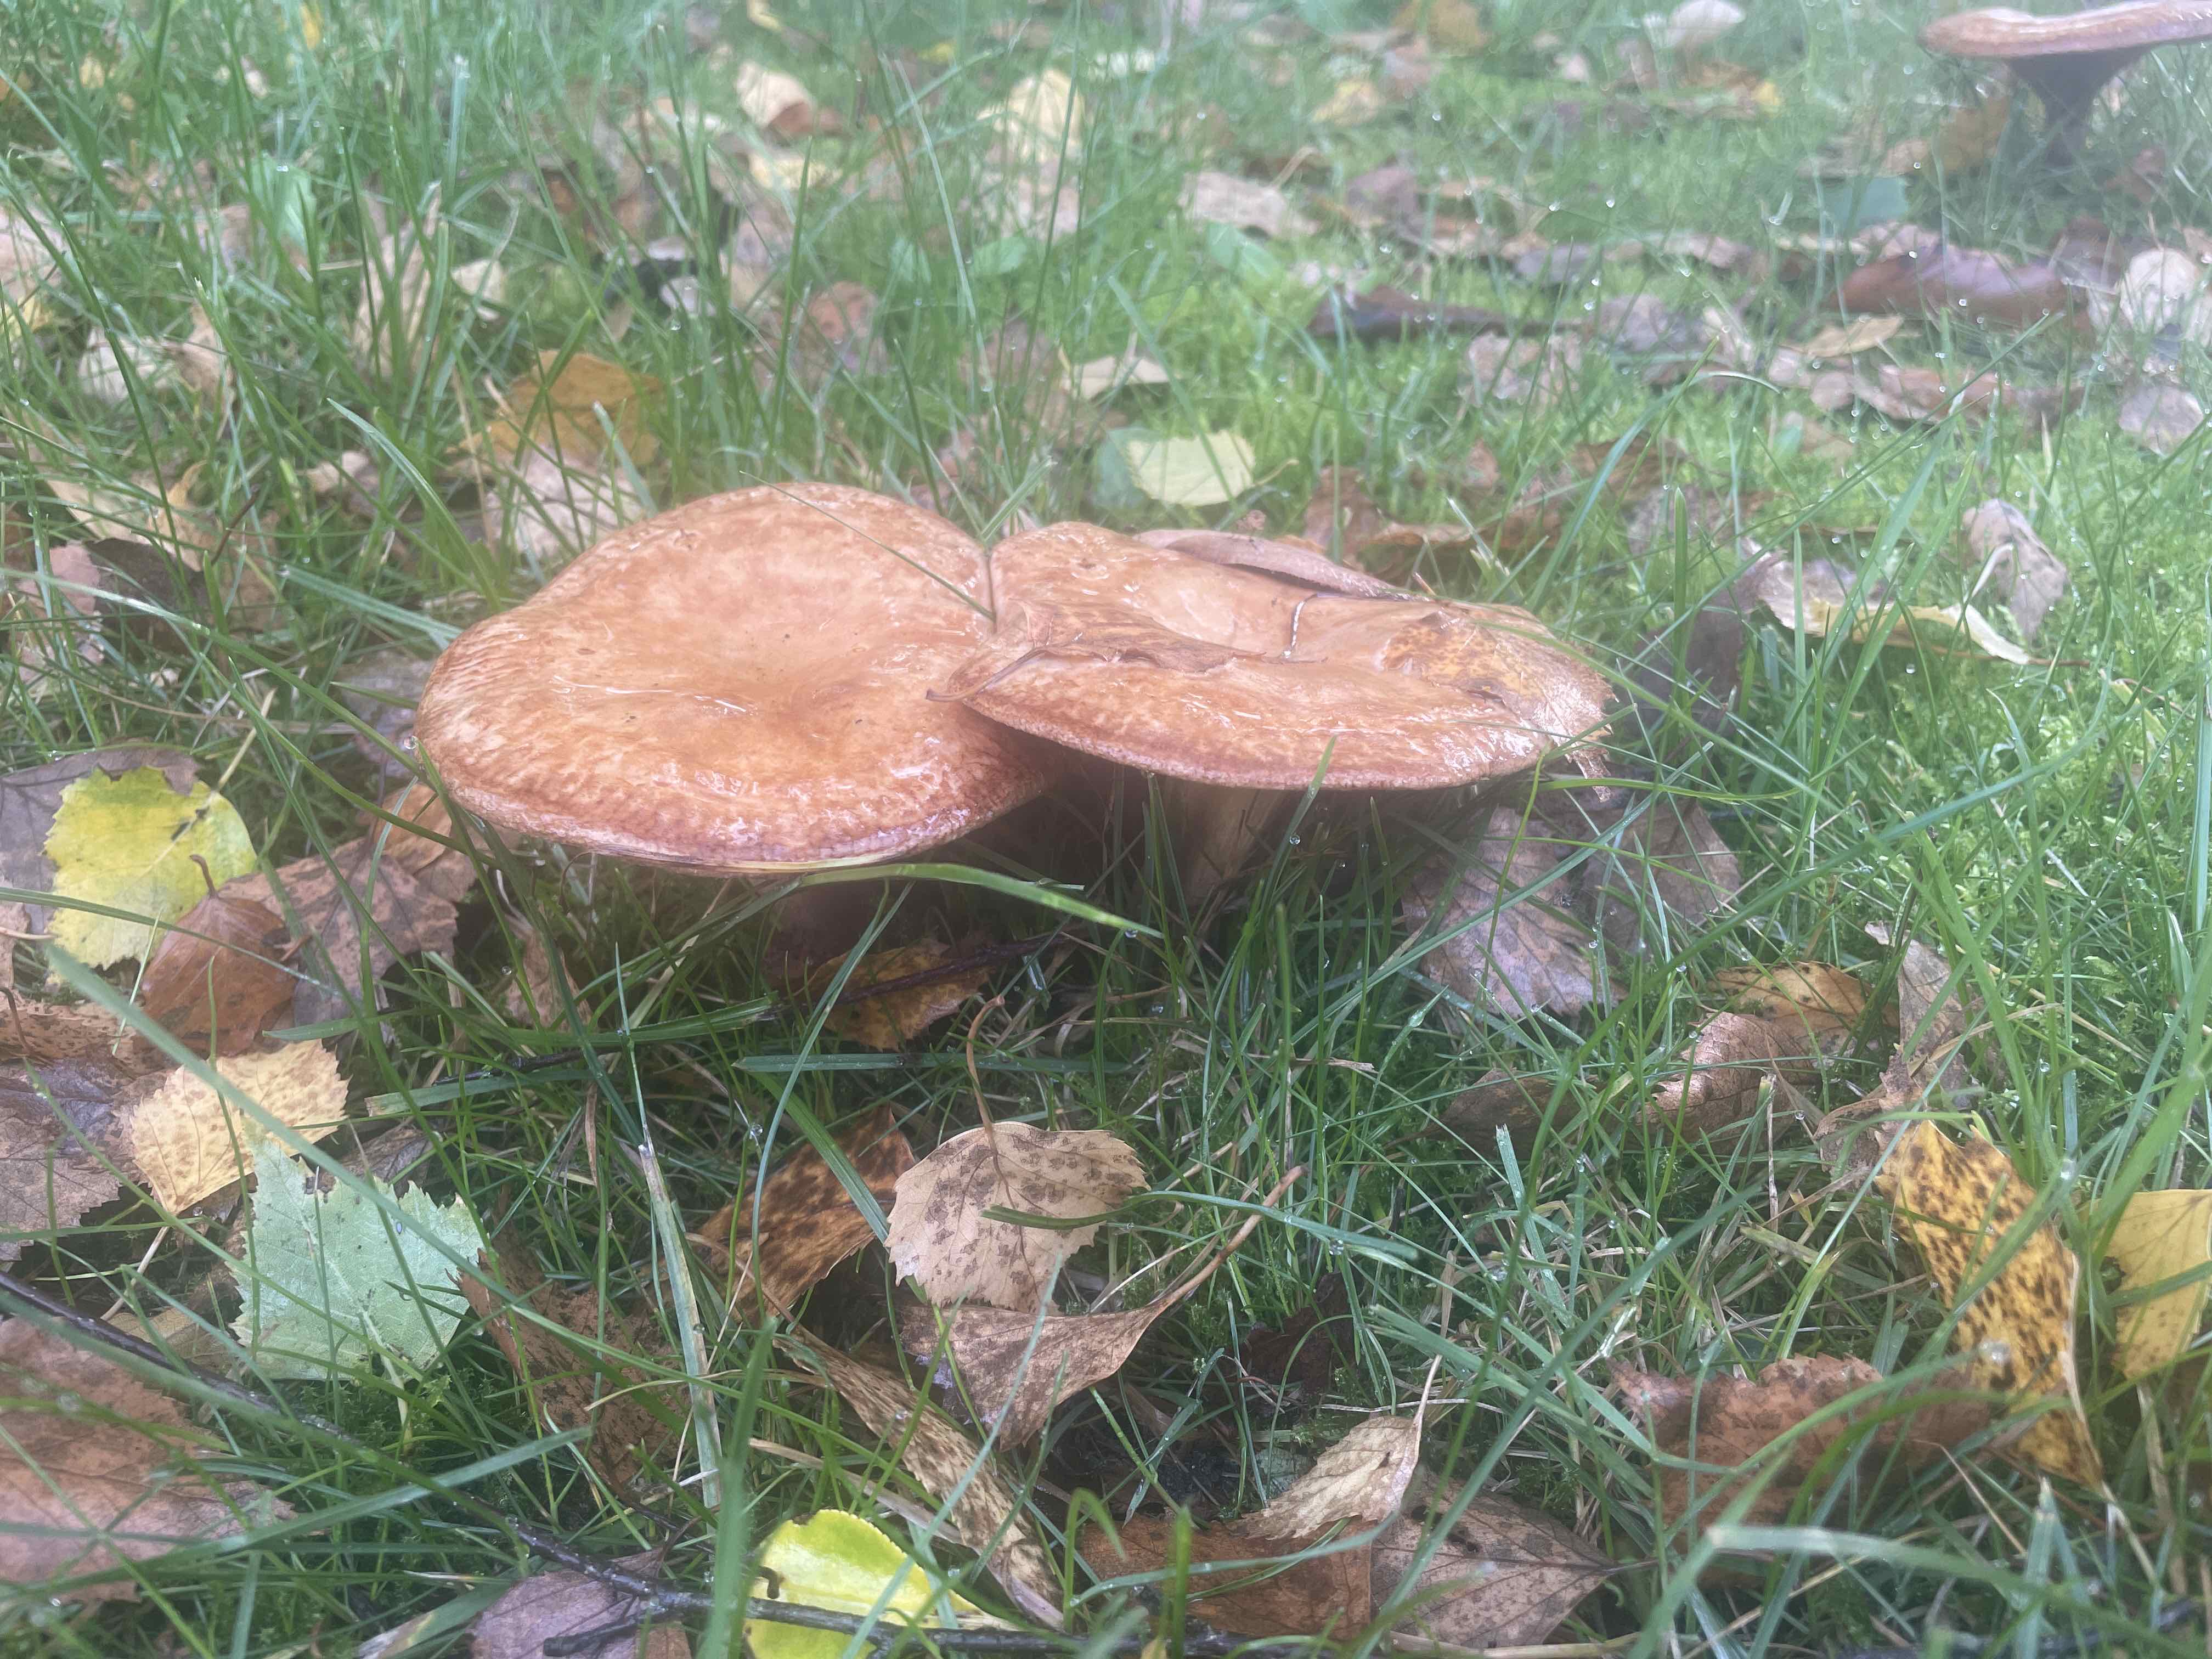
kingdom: Fungi
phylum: Basidiomycota
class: Agaricomycetes
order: Boletales
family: Paxillaceae
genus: Paxillus
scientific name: Paxillus involutus
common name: almindelig netbladhat
